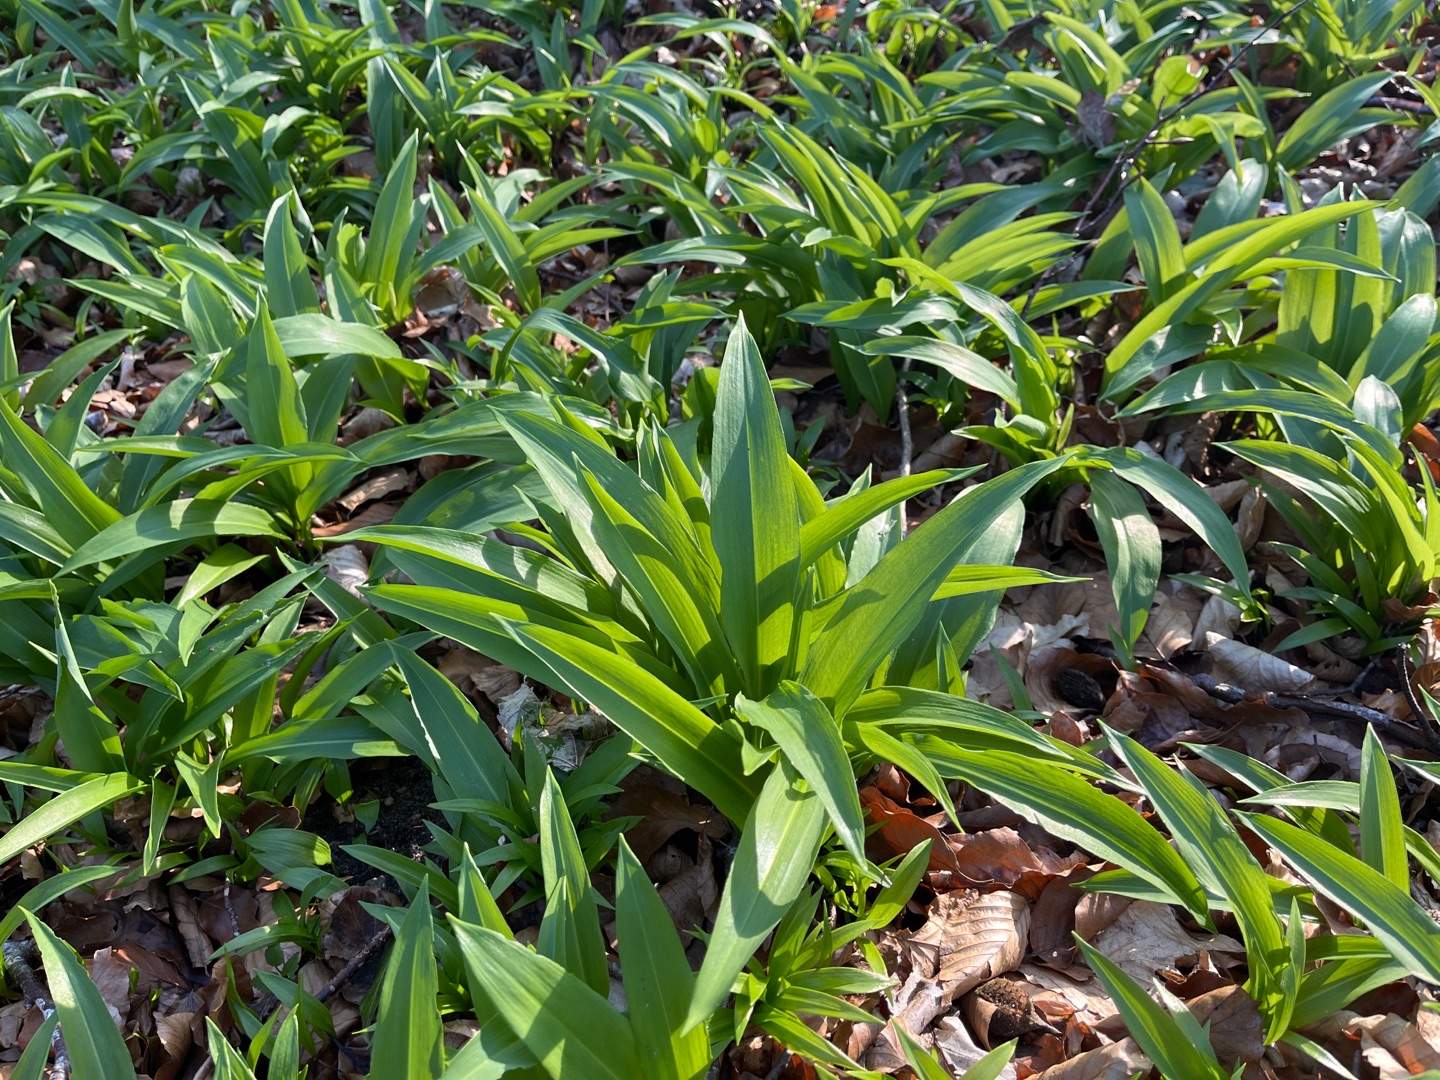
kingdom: Plantae
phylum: Tracheophyta
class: Liliopsida
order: Asparagales
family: Amaryllidaceae
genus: Allium
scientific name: Allium ursinum
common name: Rams-løg
